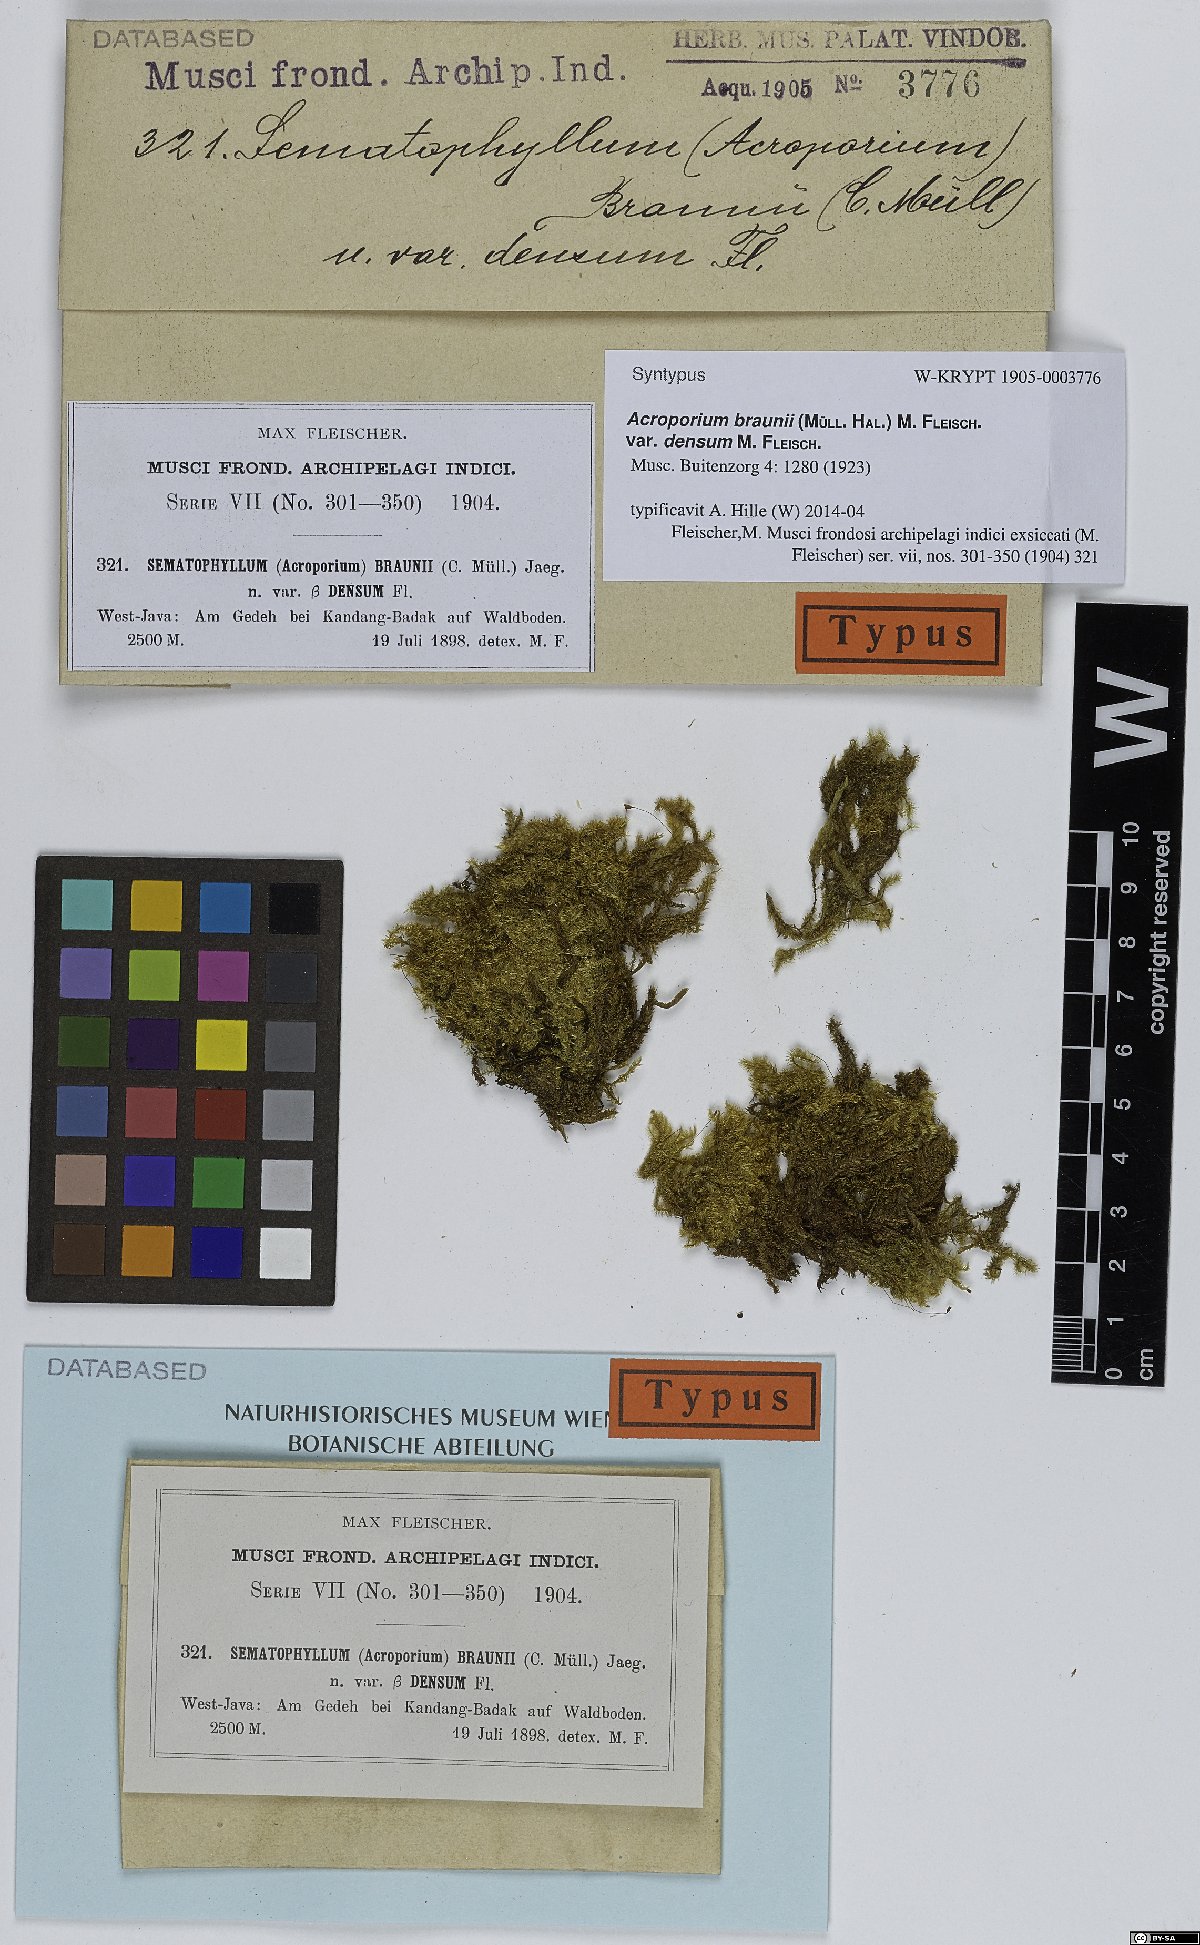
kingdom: Plantae
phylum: Bryophyta
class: Bryopsida
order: Hypnales
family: Sematophyllaceae
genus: Acroporium
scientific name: Acroporium rufum
